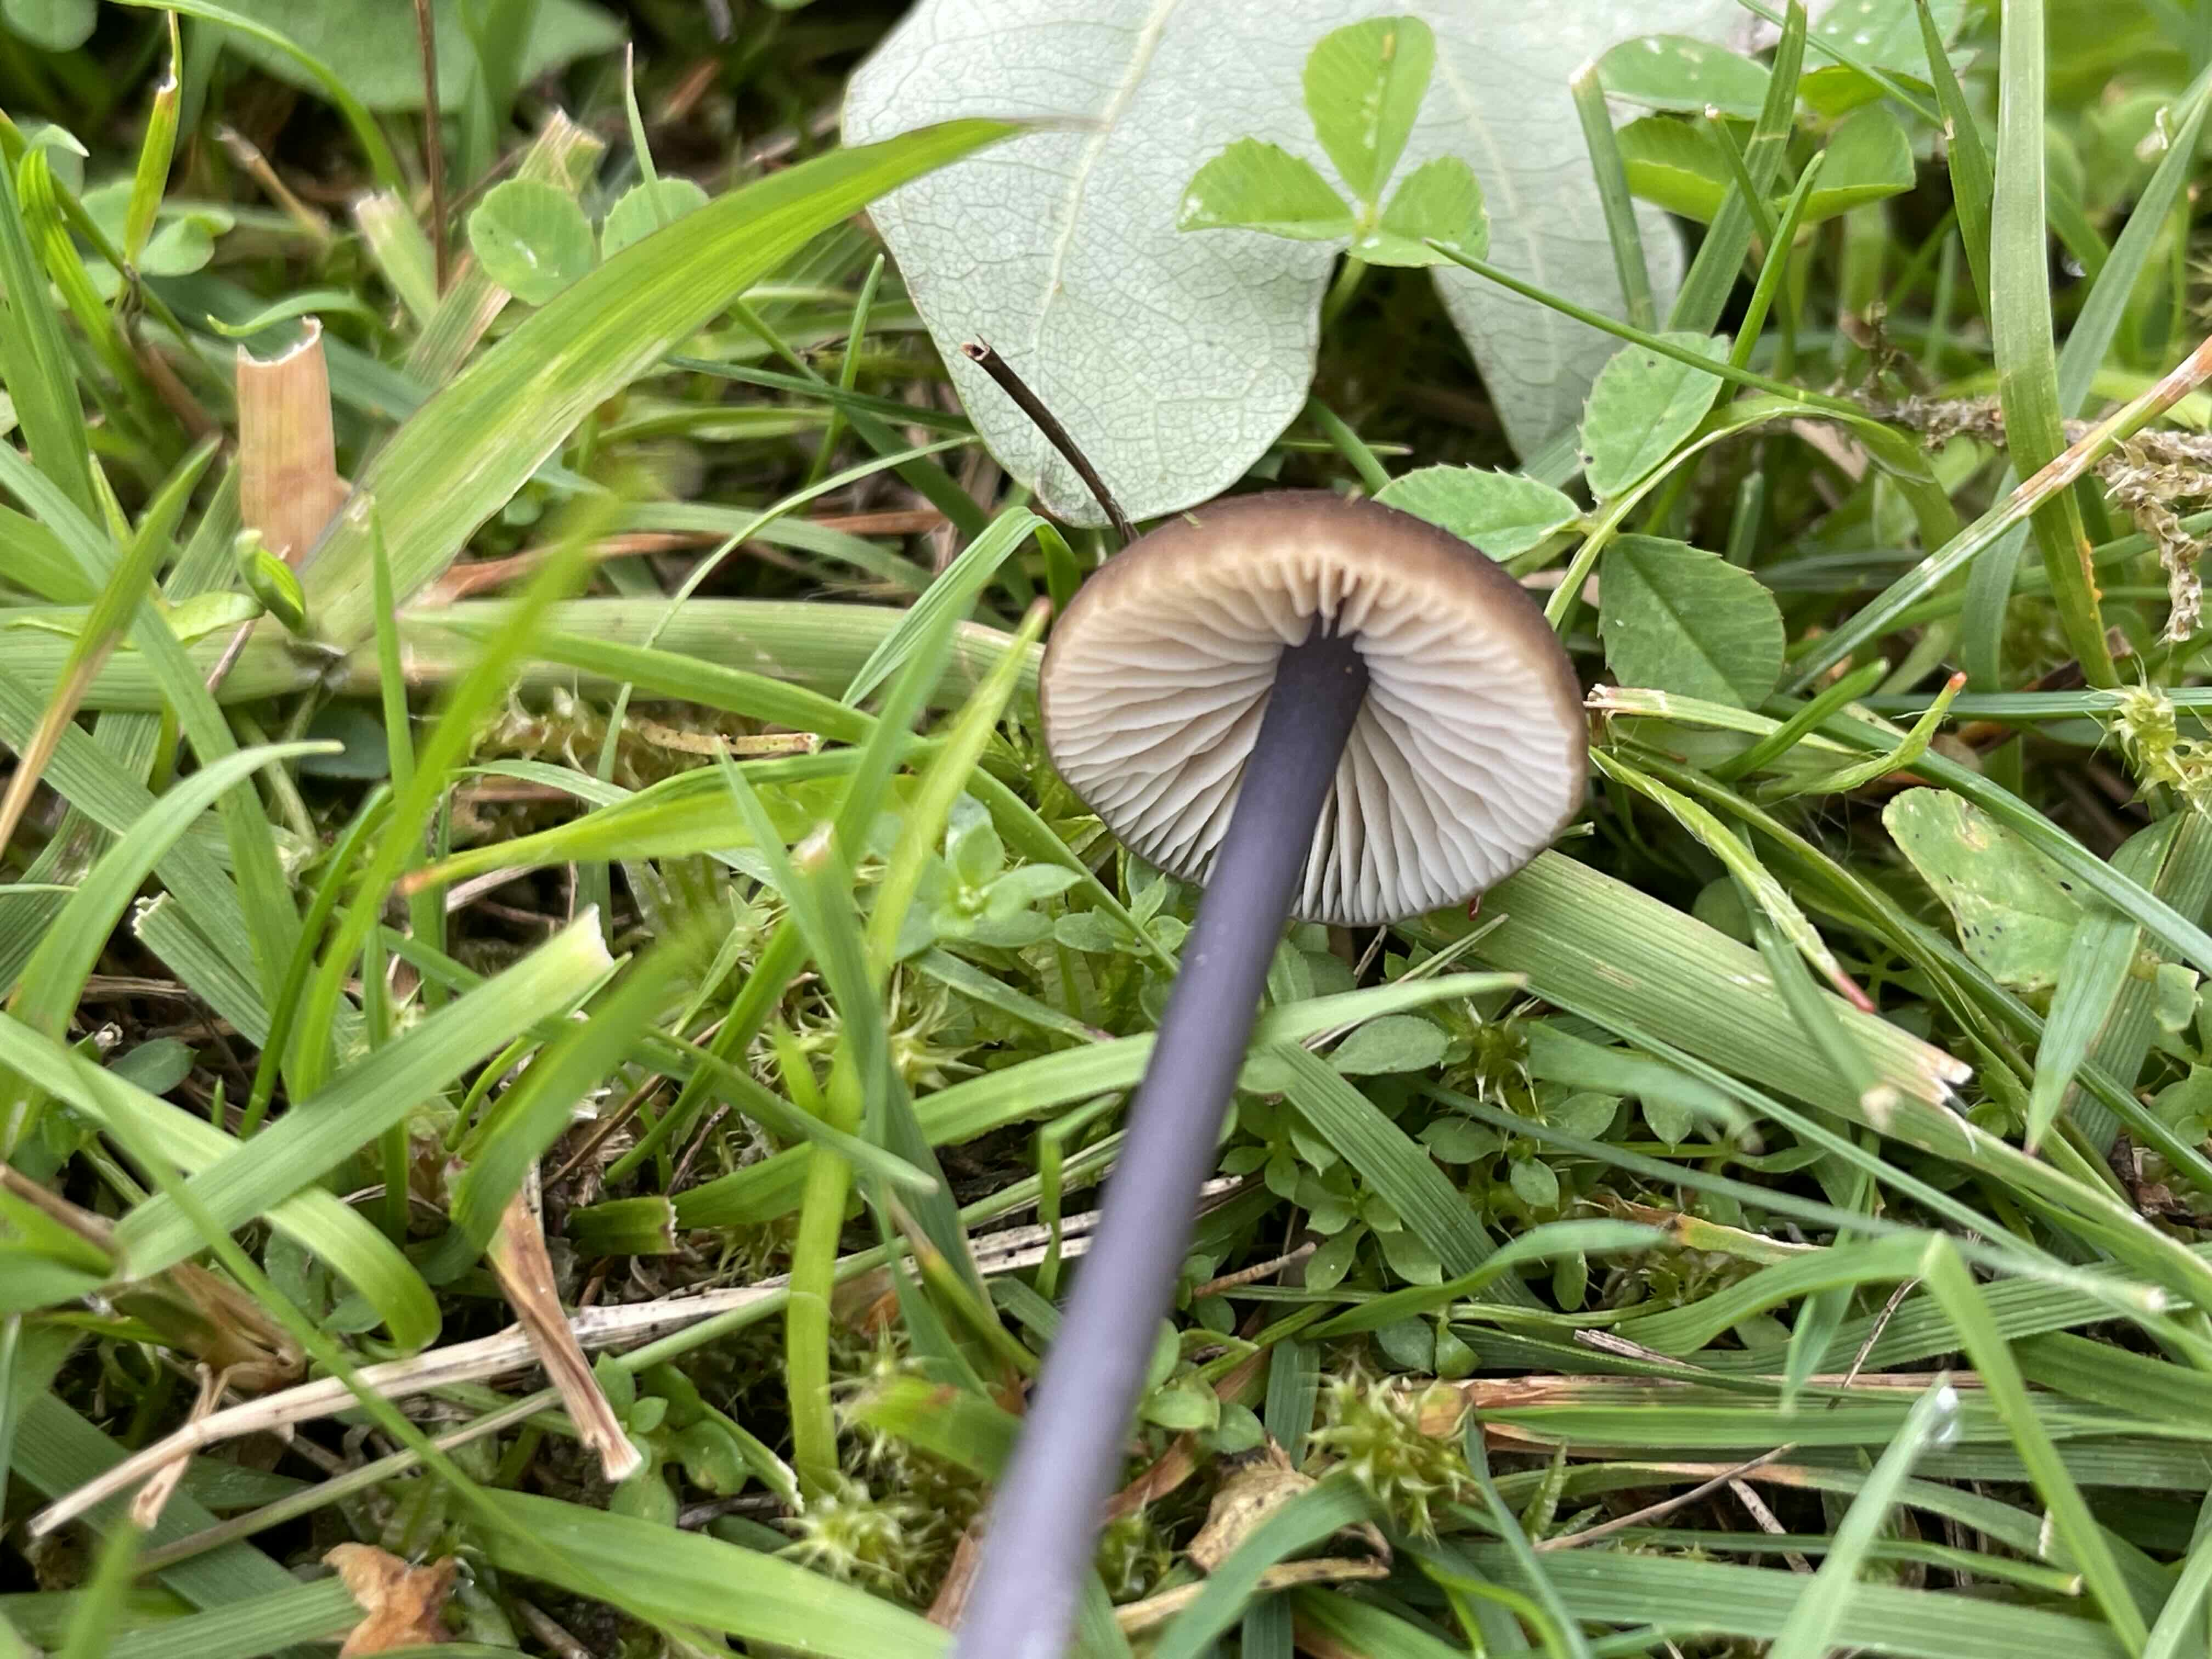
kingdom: Fungi
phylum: Basidiomycota
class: Agaricomycetes
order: Agaricales
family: Entolomataceae
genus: Entoloma
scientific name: Entoloma
